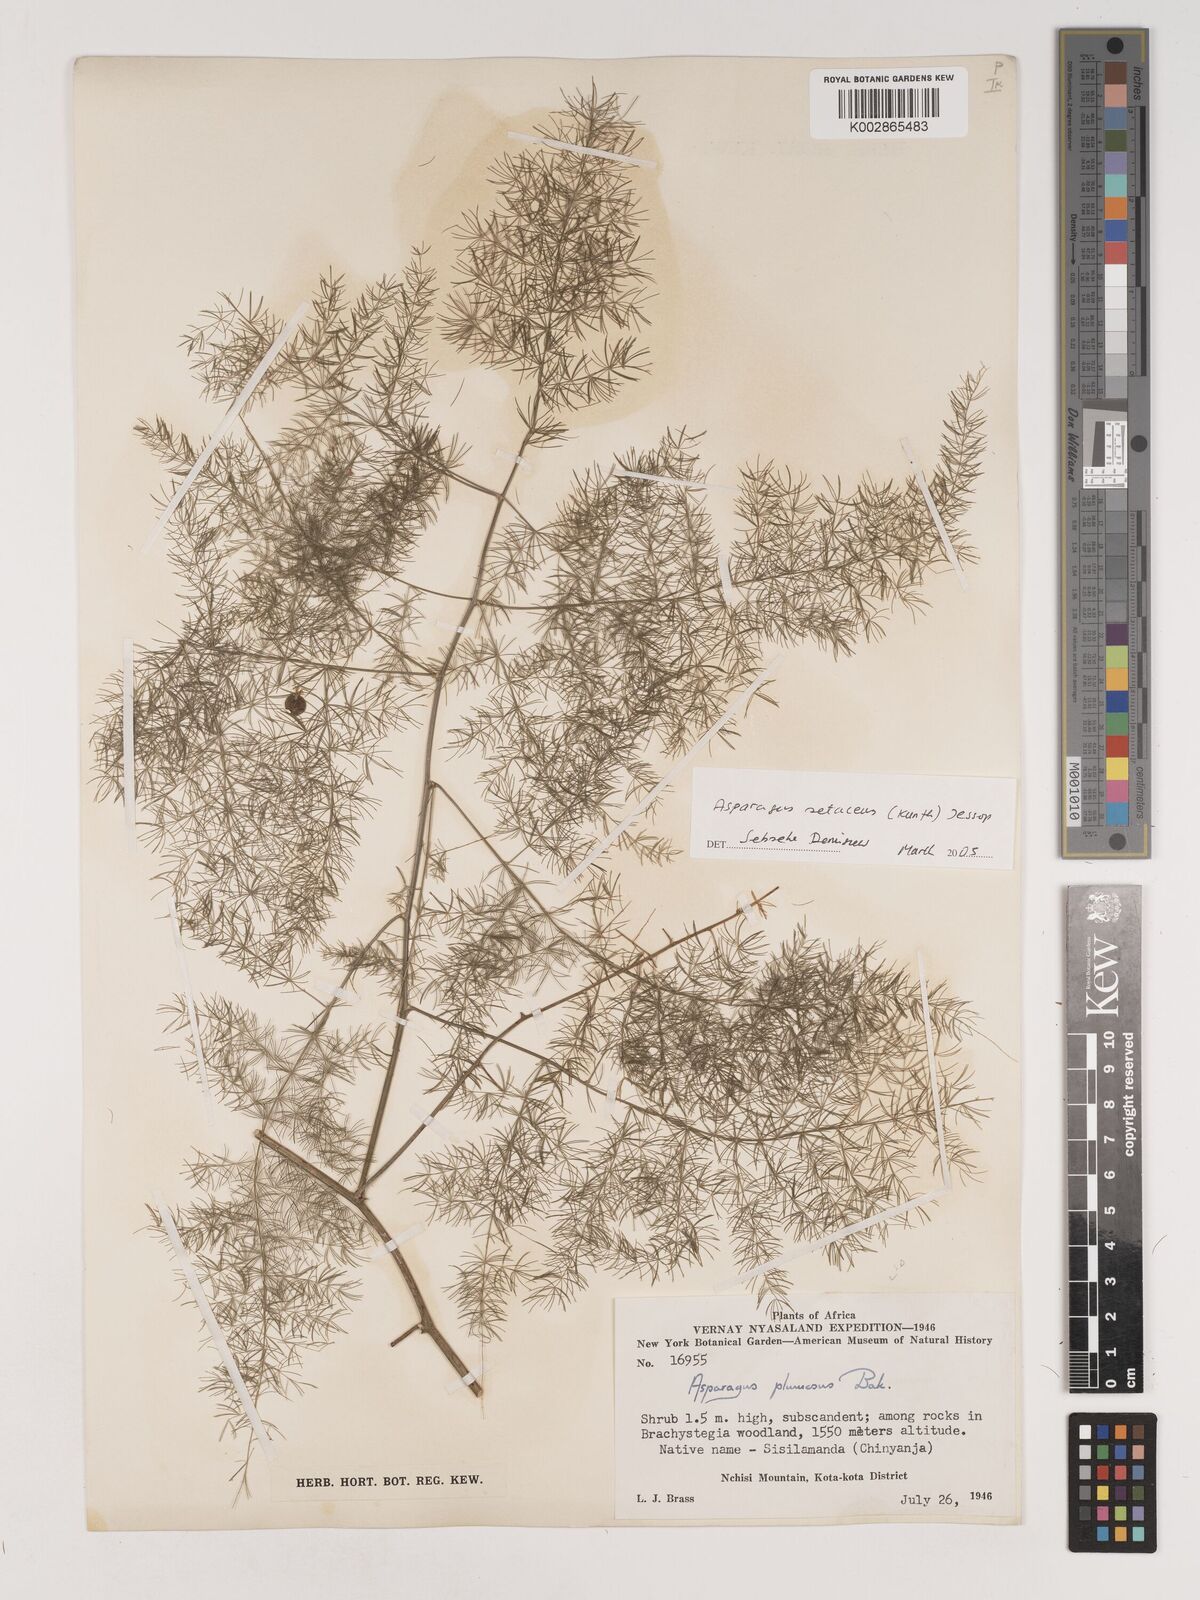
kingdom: Plantae
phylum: Tracheophyta
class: Liliopsida
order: Asparagales
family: Asparagaceae
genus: Asparagus
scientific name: Asparagus setaceus
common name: Common asparagus fern
